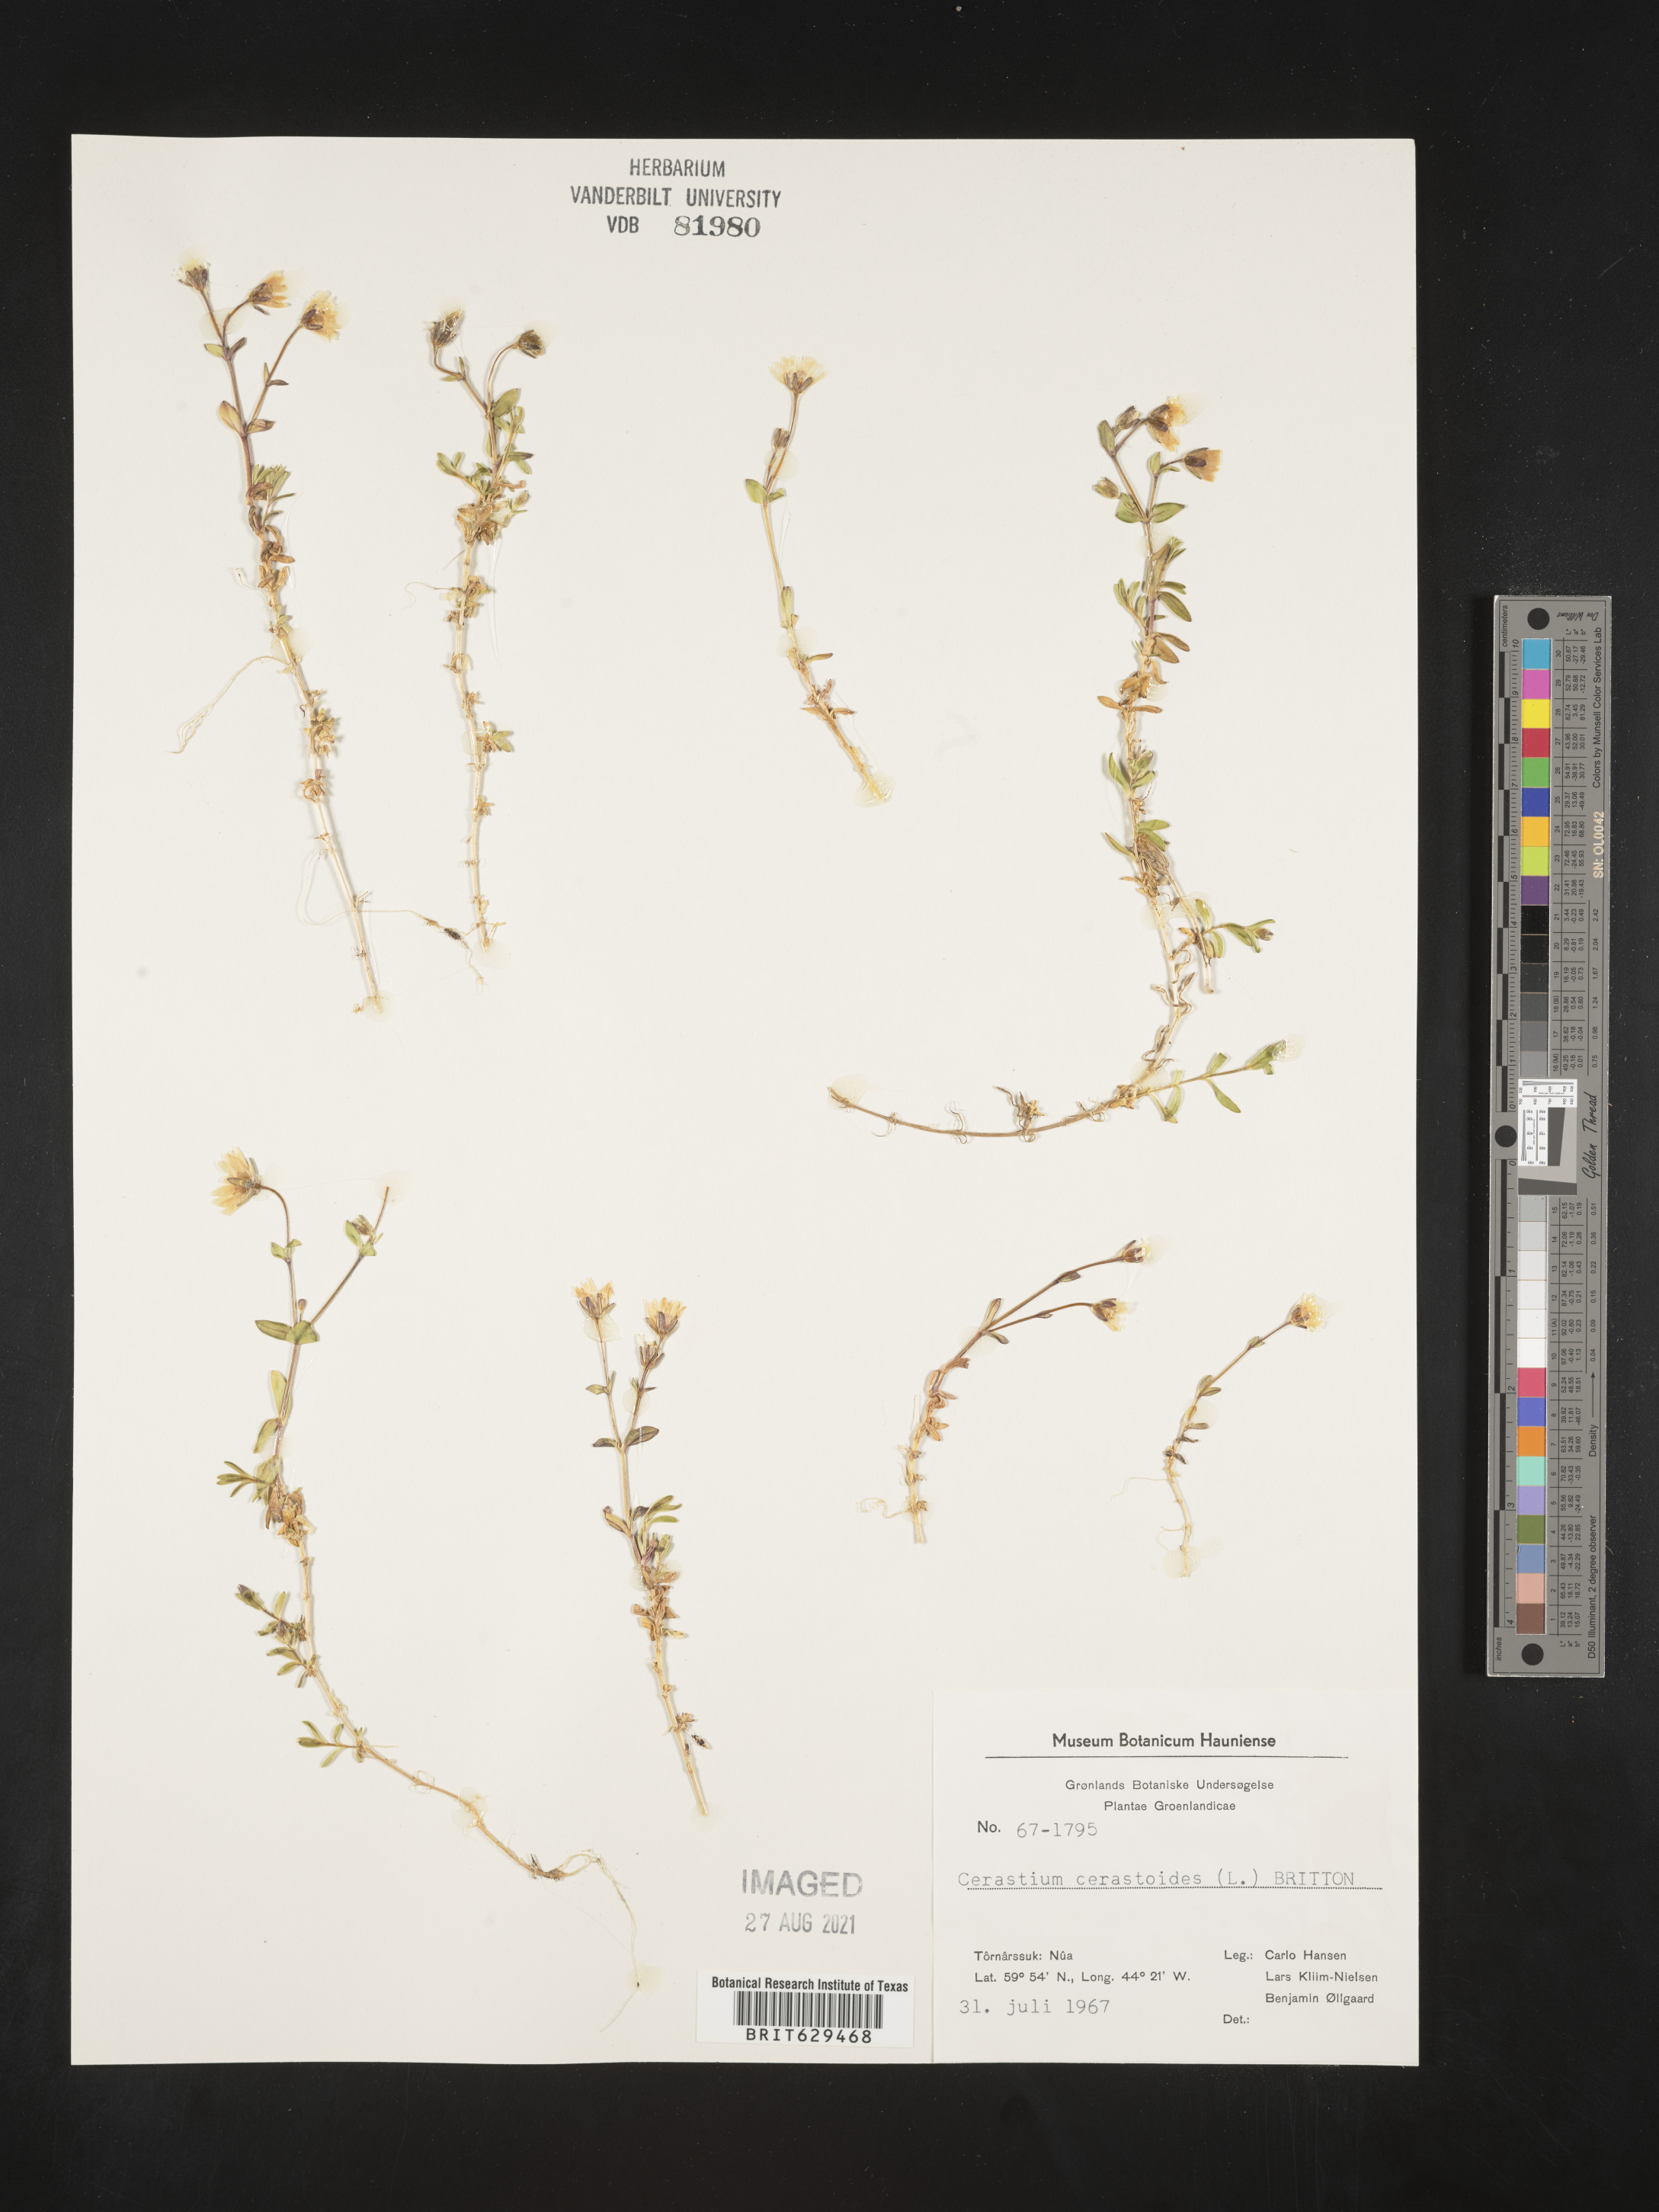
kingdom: Plantae
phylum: Tracheophyta
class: Magnoliopsida
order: Caryophyllales
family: Caryophyllaceae
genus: Cerastium
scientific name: Cerastium cerastioides
